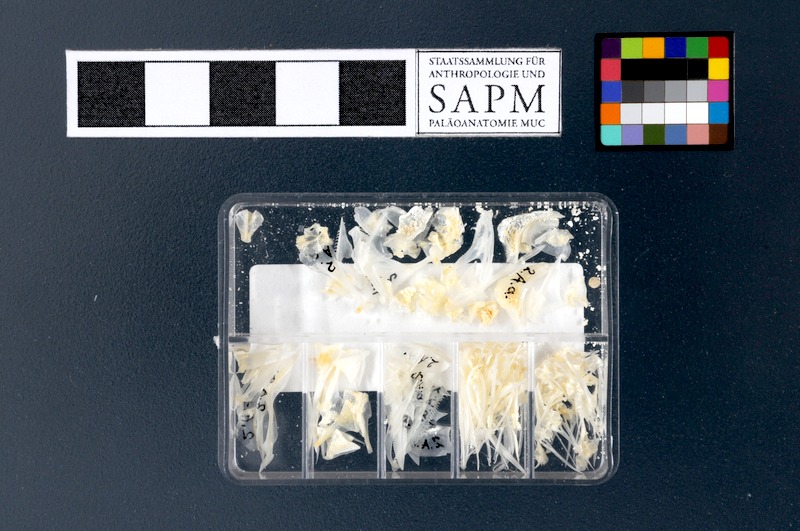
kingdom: Animalia
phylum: Chordata
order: Perciformes
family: Serranidae
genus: Anthias
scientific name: Anthias anthias
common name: Swallowtail seaperch
